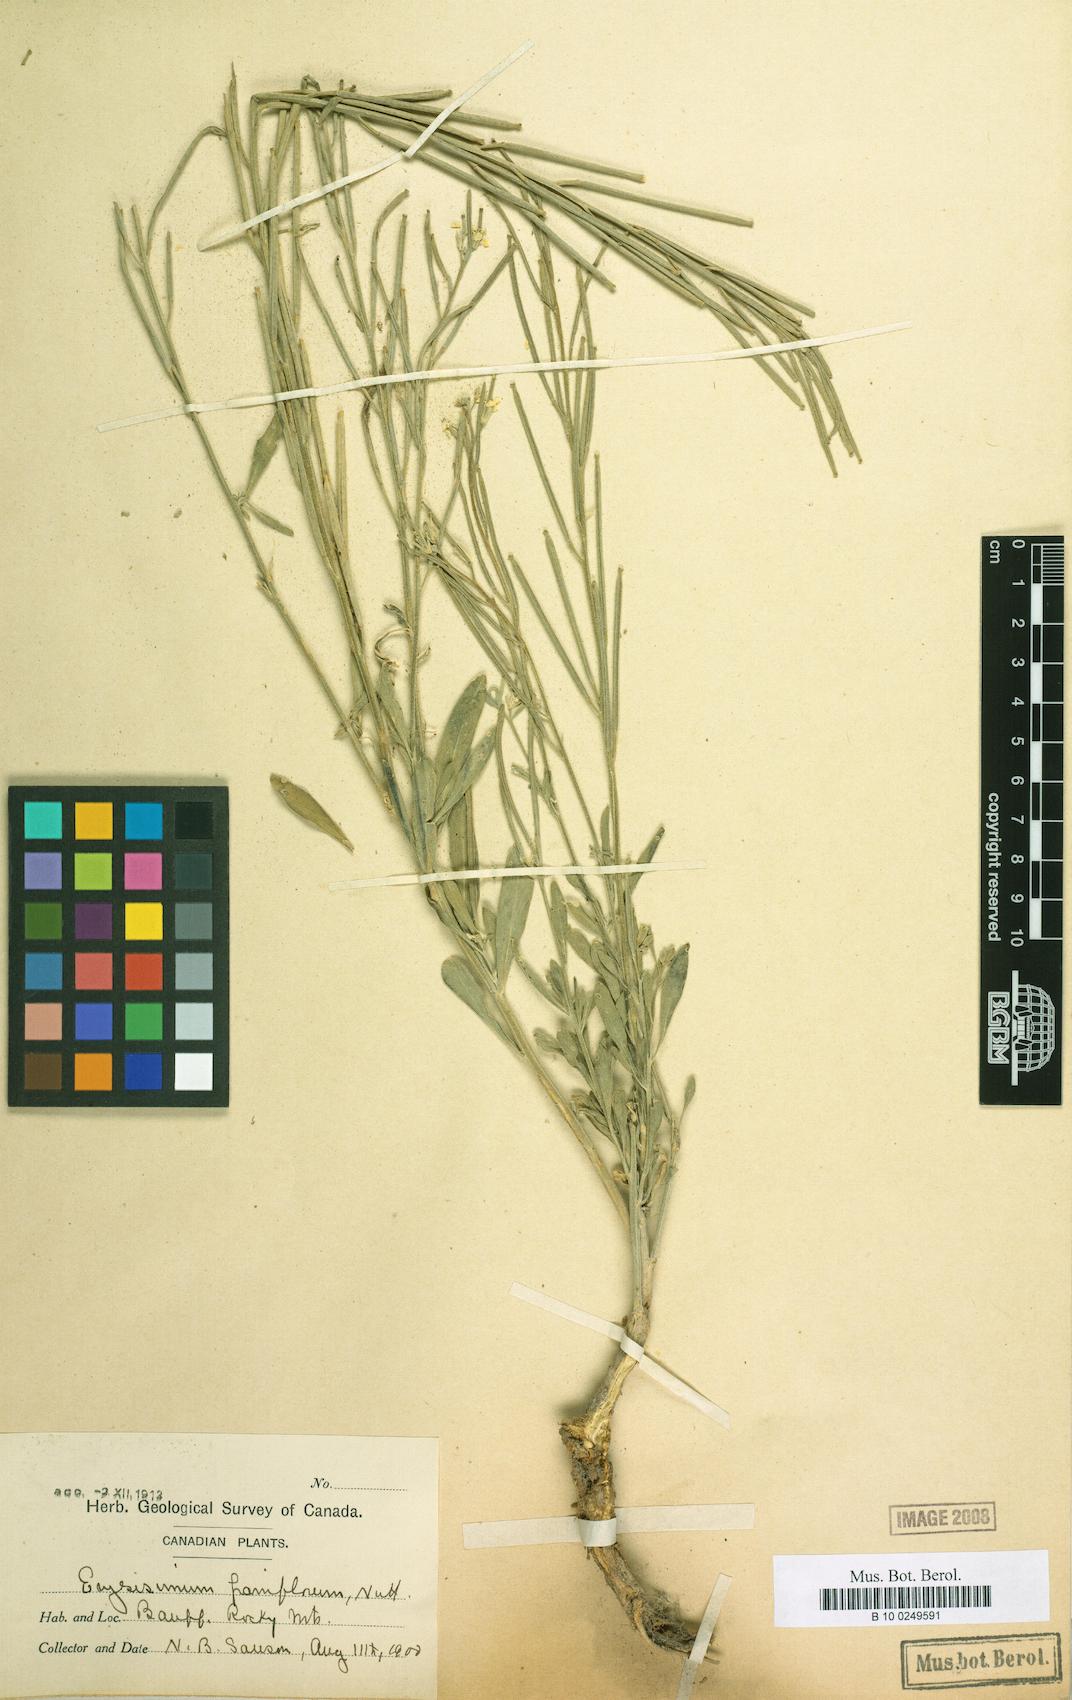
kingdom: Plantae
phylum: Tracheophyta
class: Magnoliopsida
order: Brassicales
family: Brassicaceae
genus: Erysimum
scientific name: Erysimum inconspicuum
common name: Shy wallflower
